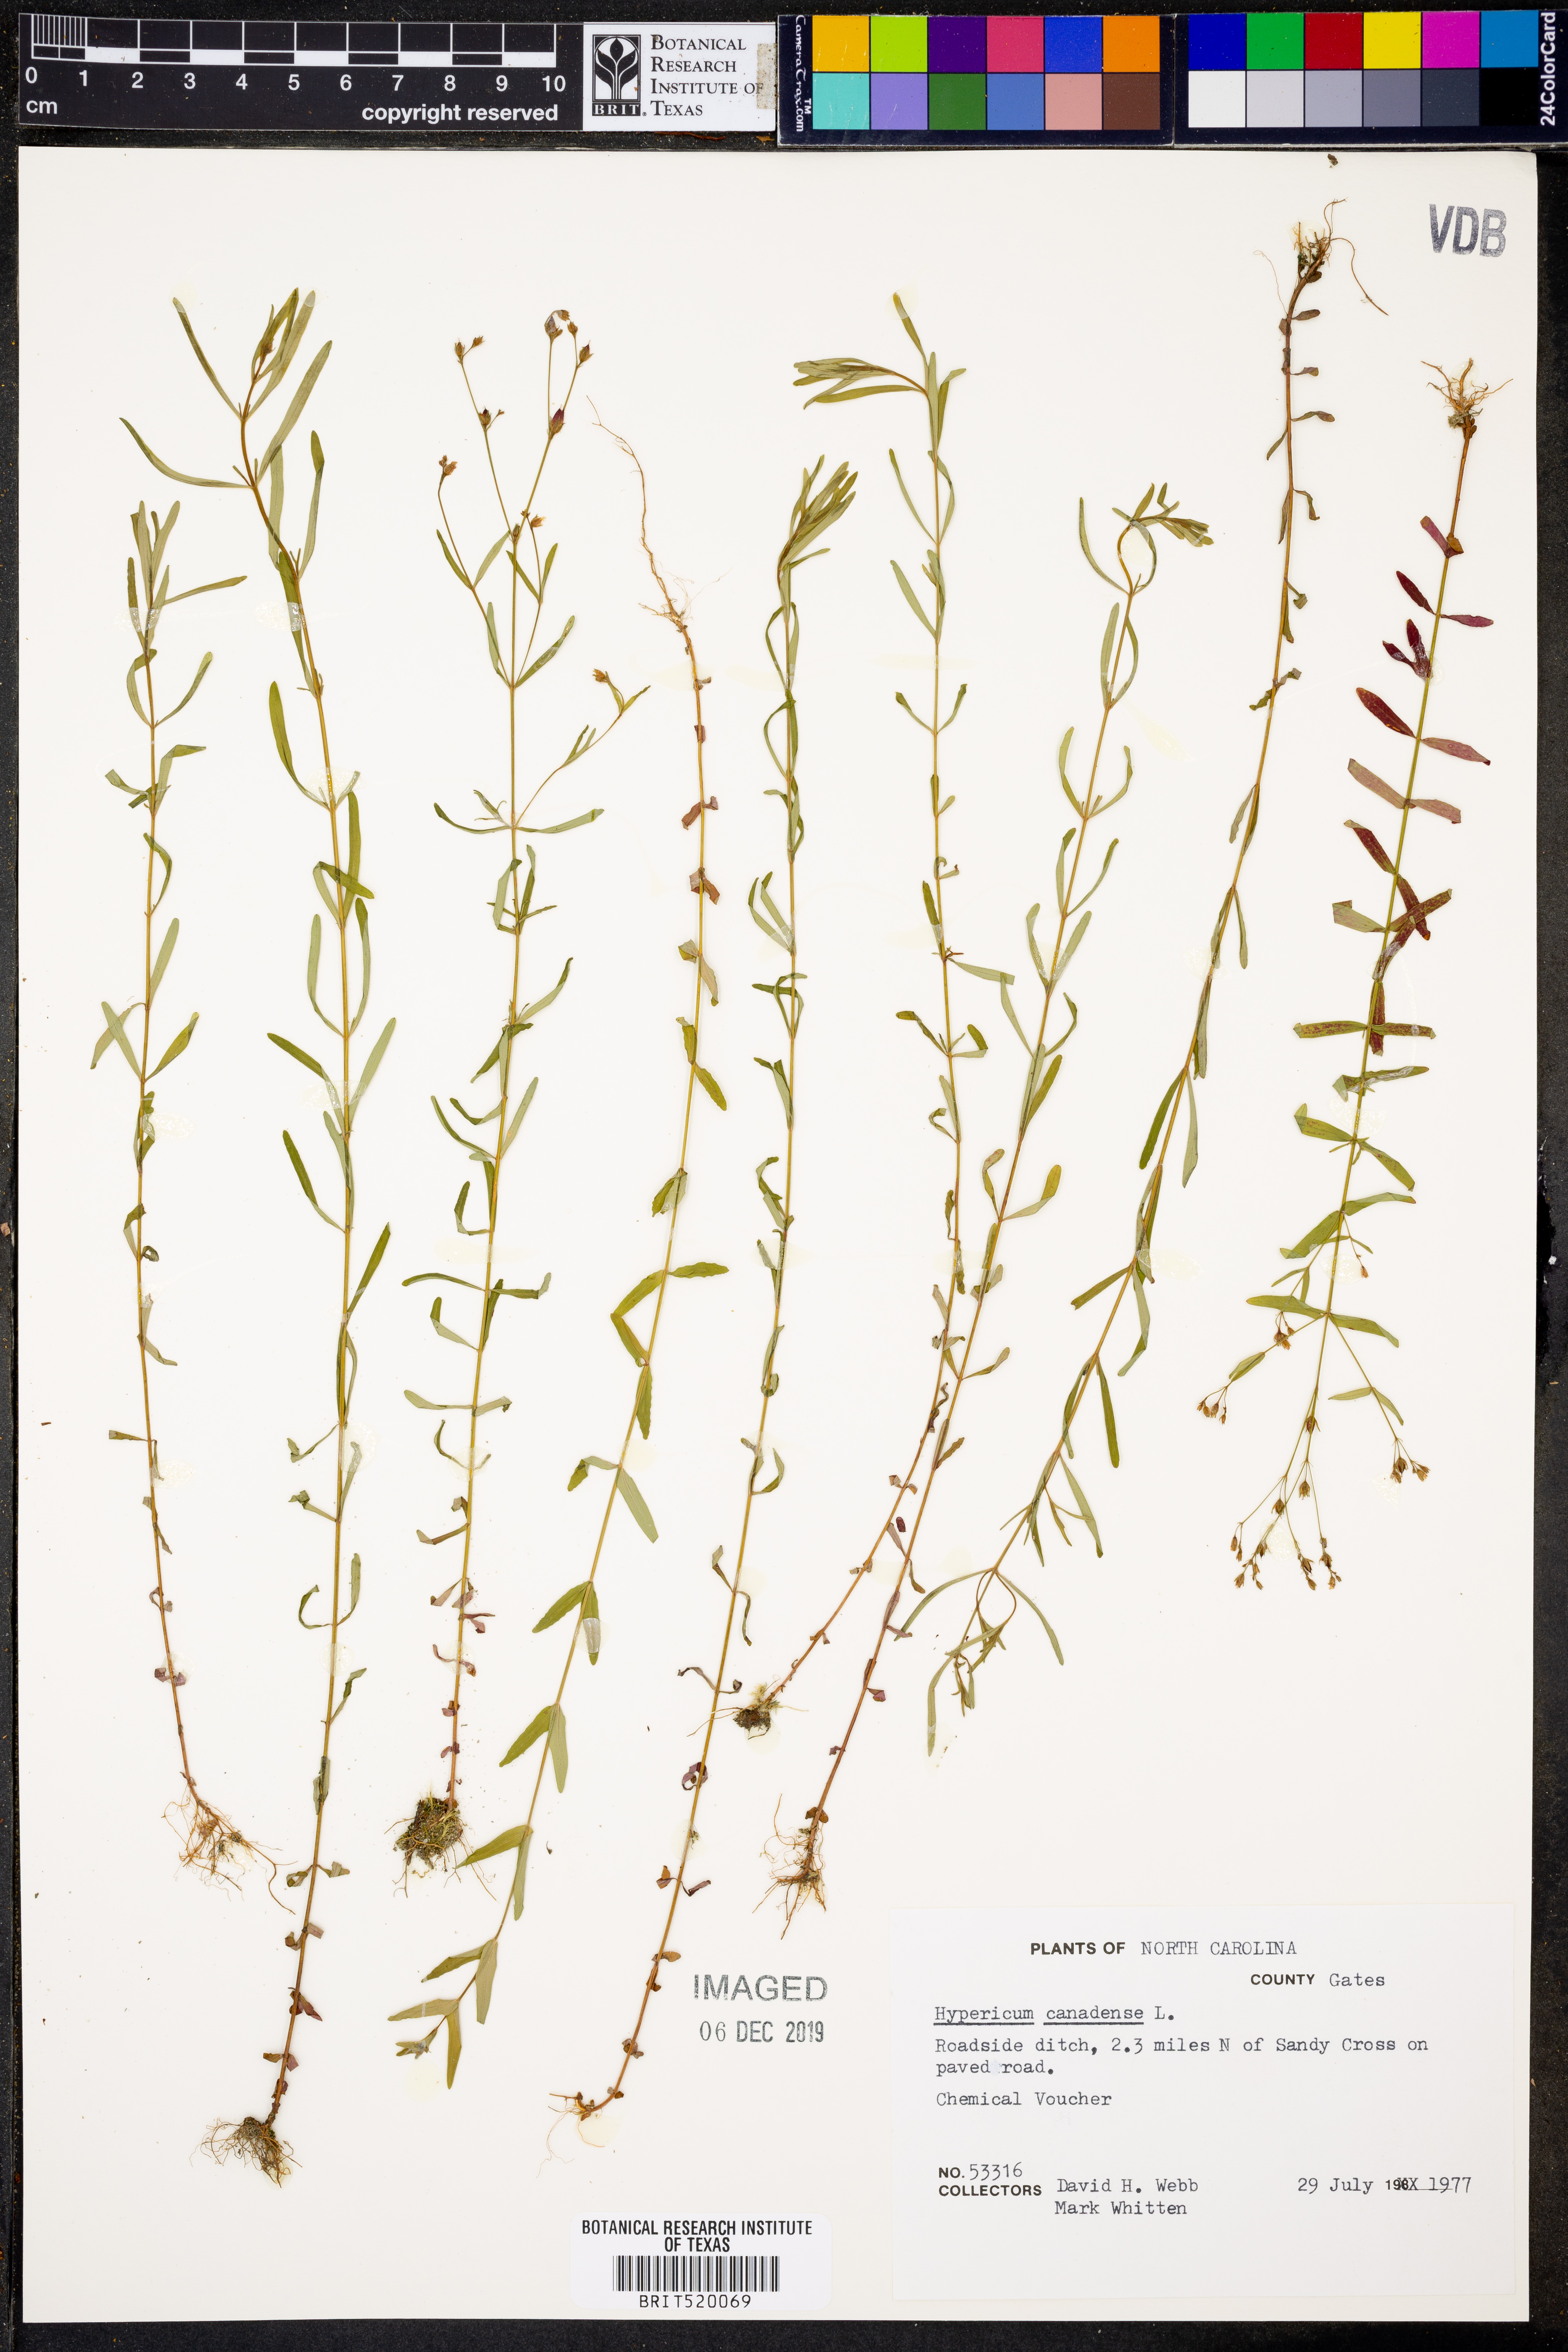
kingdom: Plantae
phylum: Tracheophyta
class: Magnoliopsida
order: Malpighiales
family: Hypericaceae
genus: Hypericum
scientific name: Hypericum canadense
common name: Irish st. john's-wort
